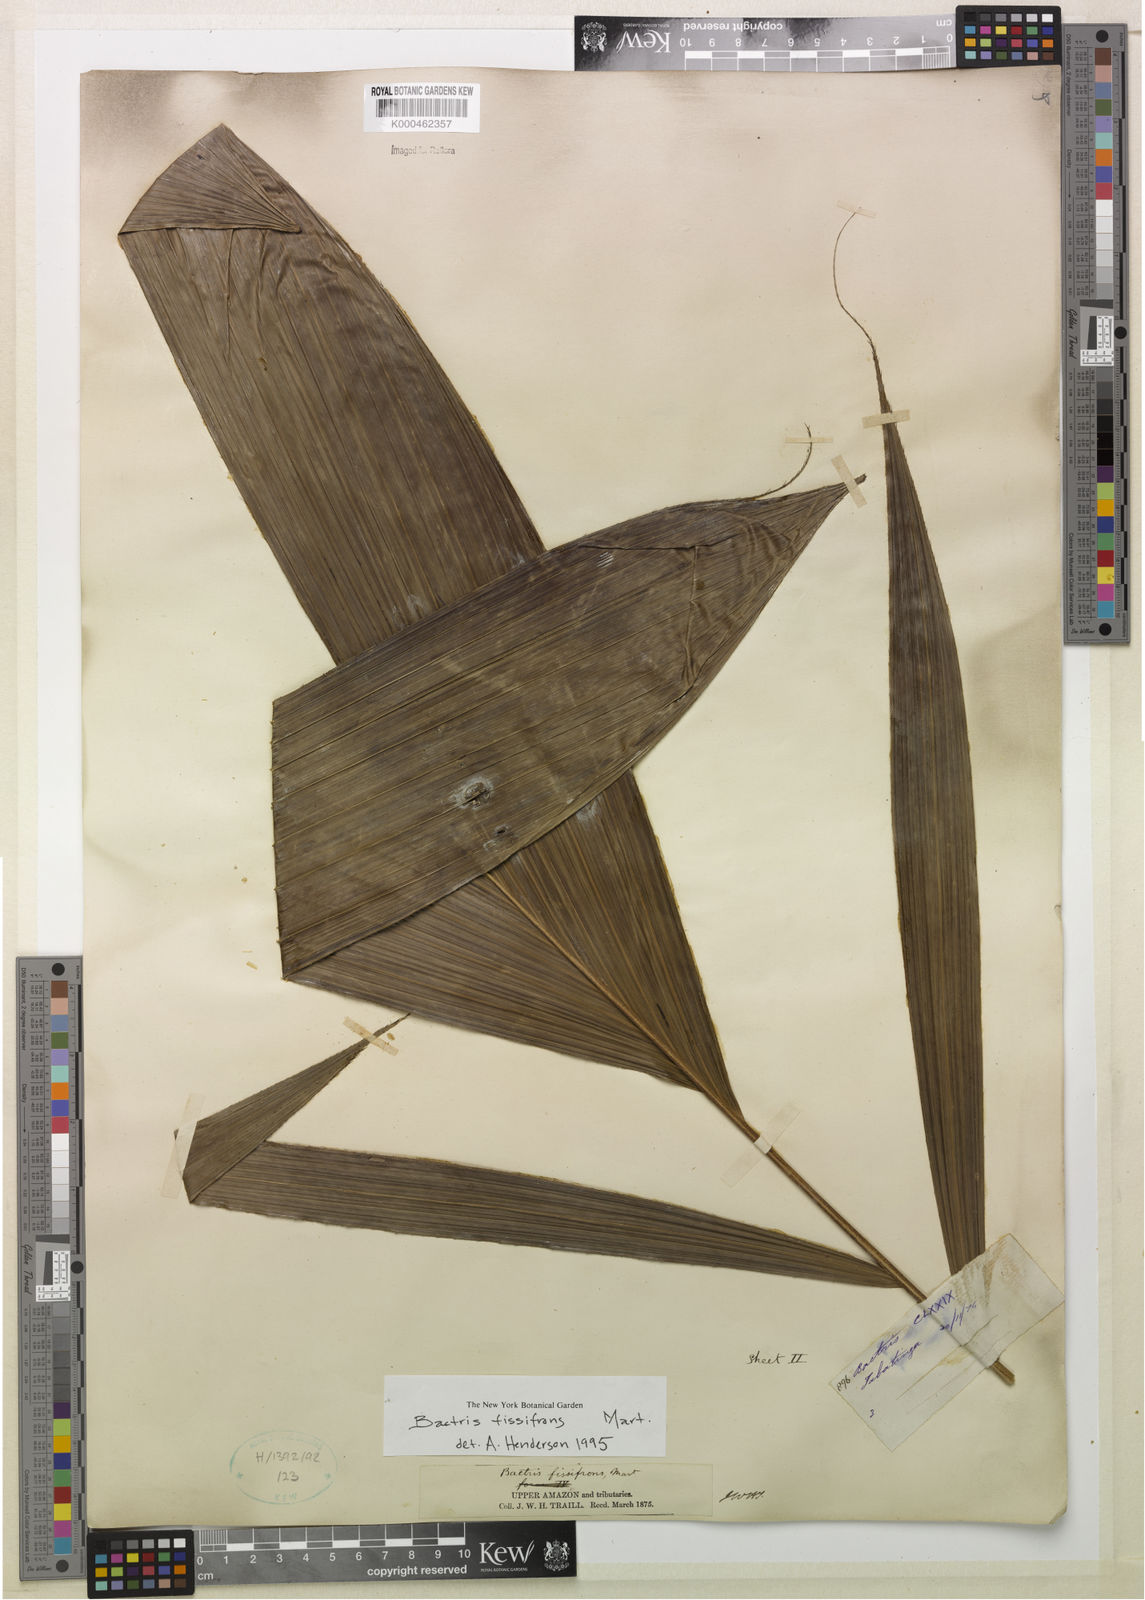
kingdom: Plantae
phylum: Tracheophyta
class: Liliopsida
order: Arecales
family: Arecaceae
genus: Bactris
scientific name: Bactris fissifrons
